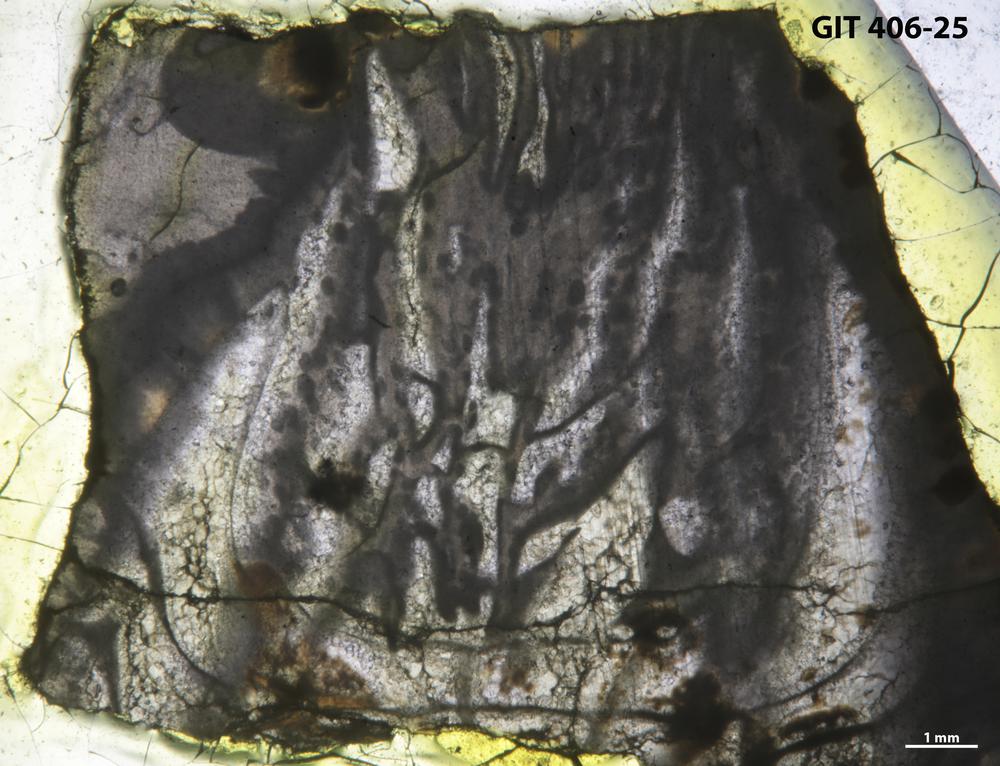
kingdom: Animalia
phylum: Cnidaria
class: Anthozoa
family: Streptelasmatidae
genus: Brachyelasma
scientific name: Brachyelasma
